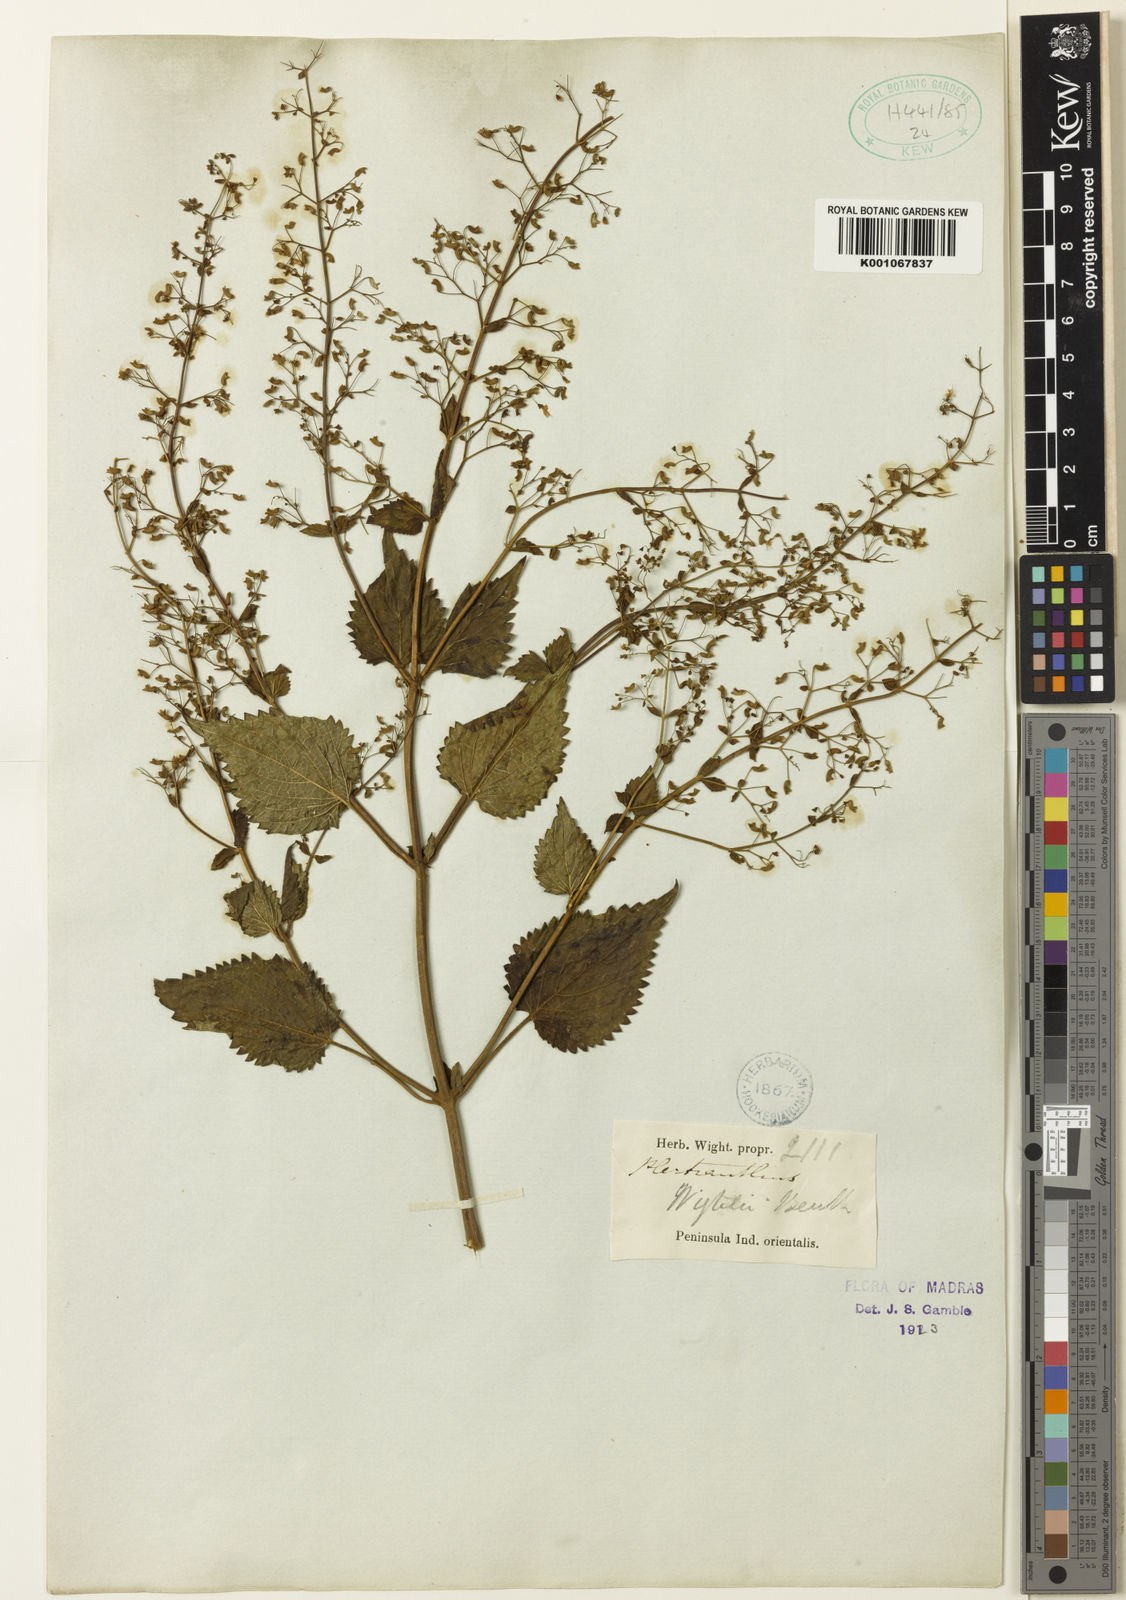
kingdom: Plantae
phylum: Tracheophyta
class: Magnoliopsida
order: Lamiales
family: Lamiaceae
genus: Isodon
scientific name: Isodon wightii
